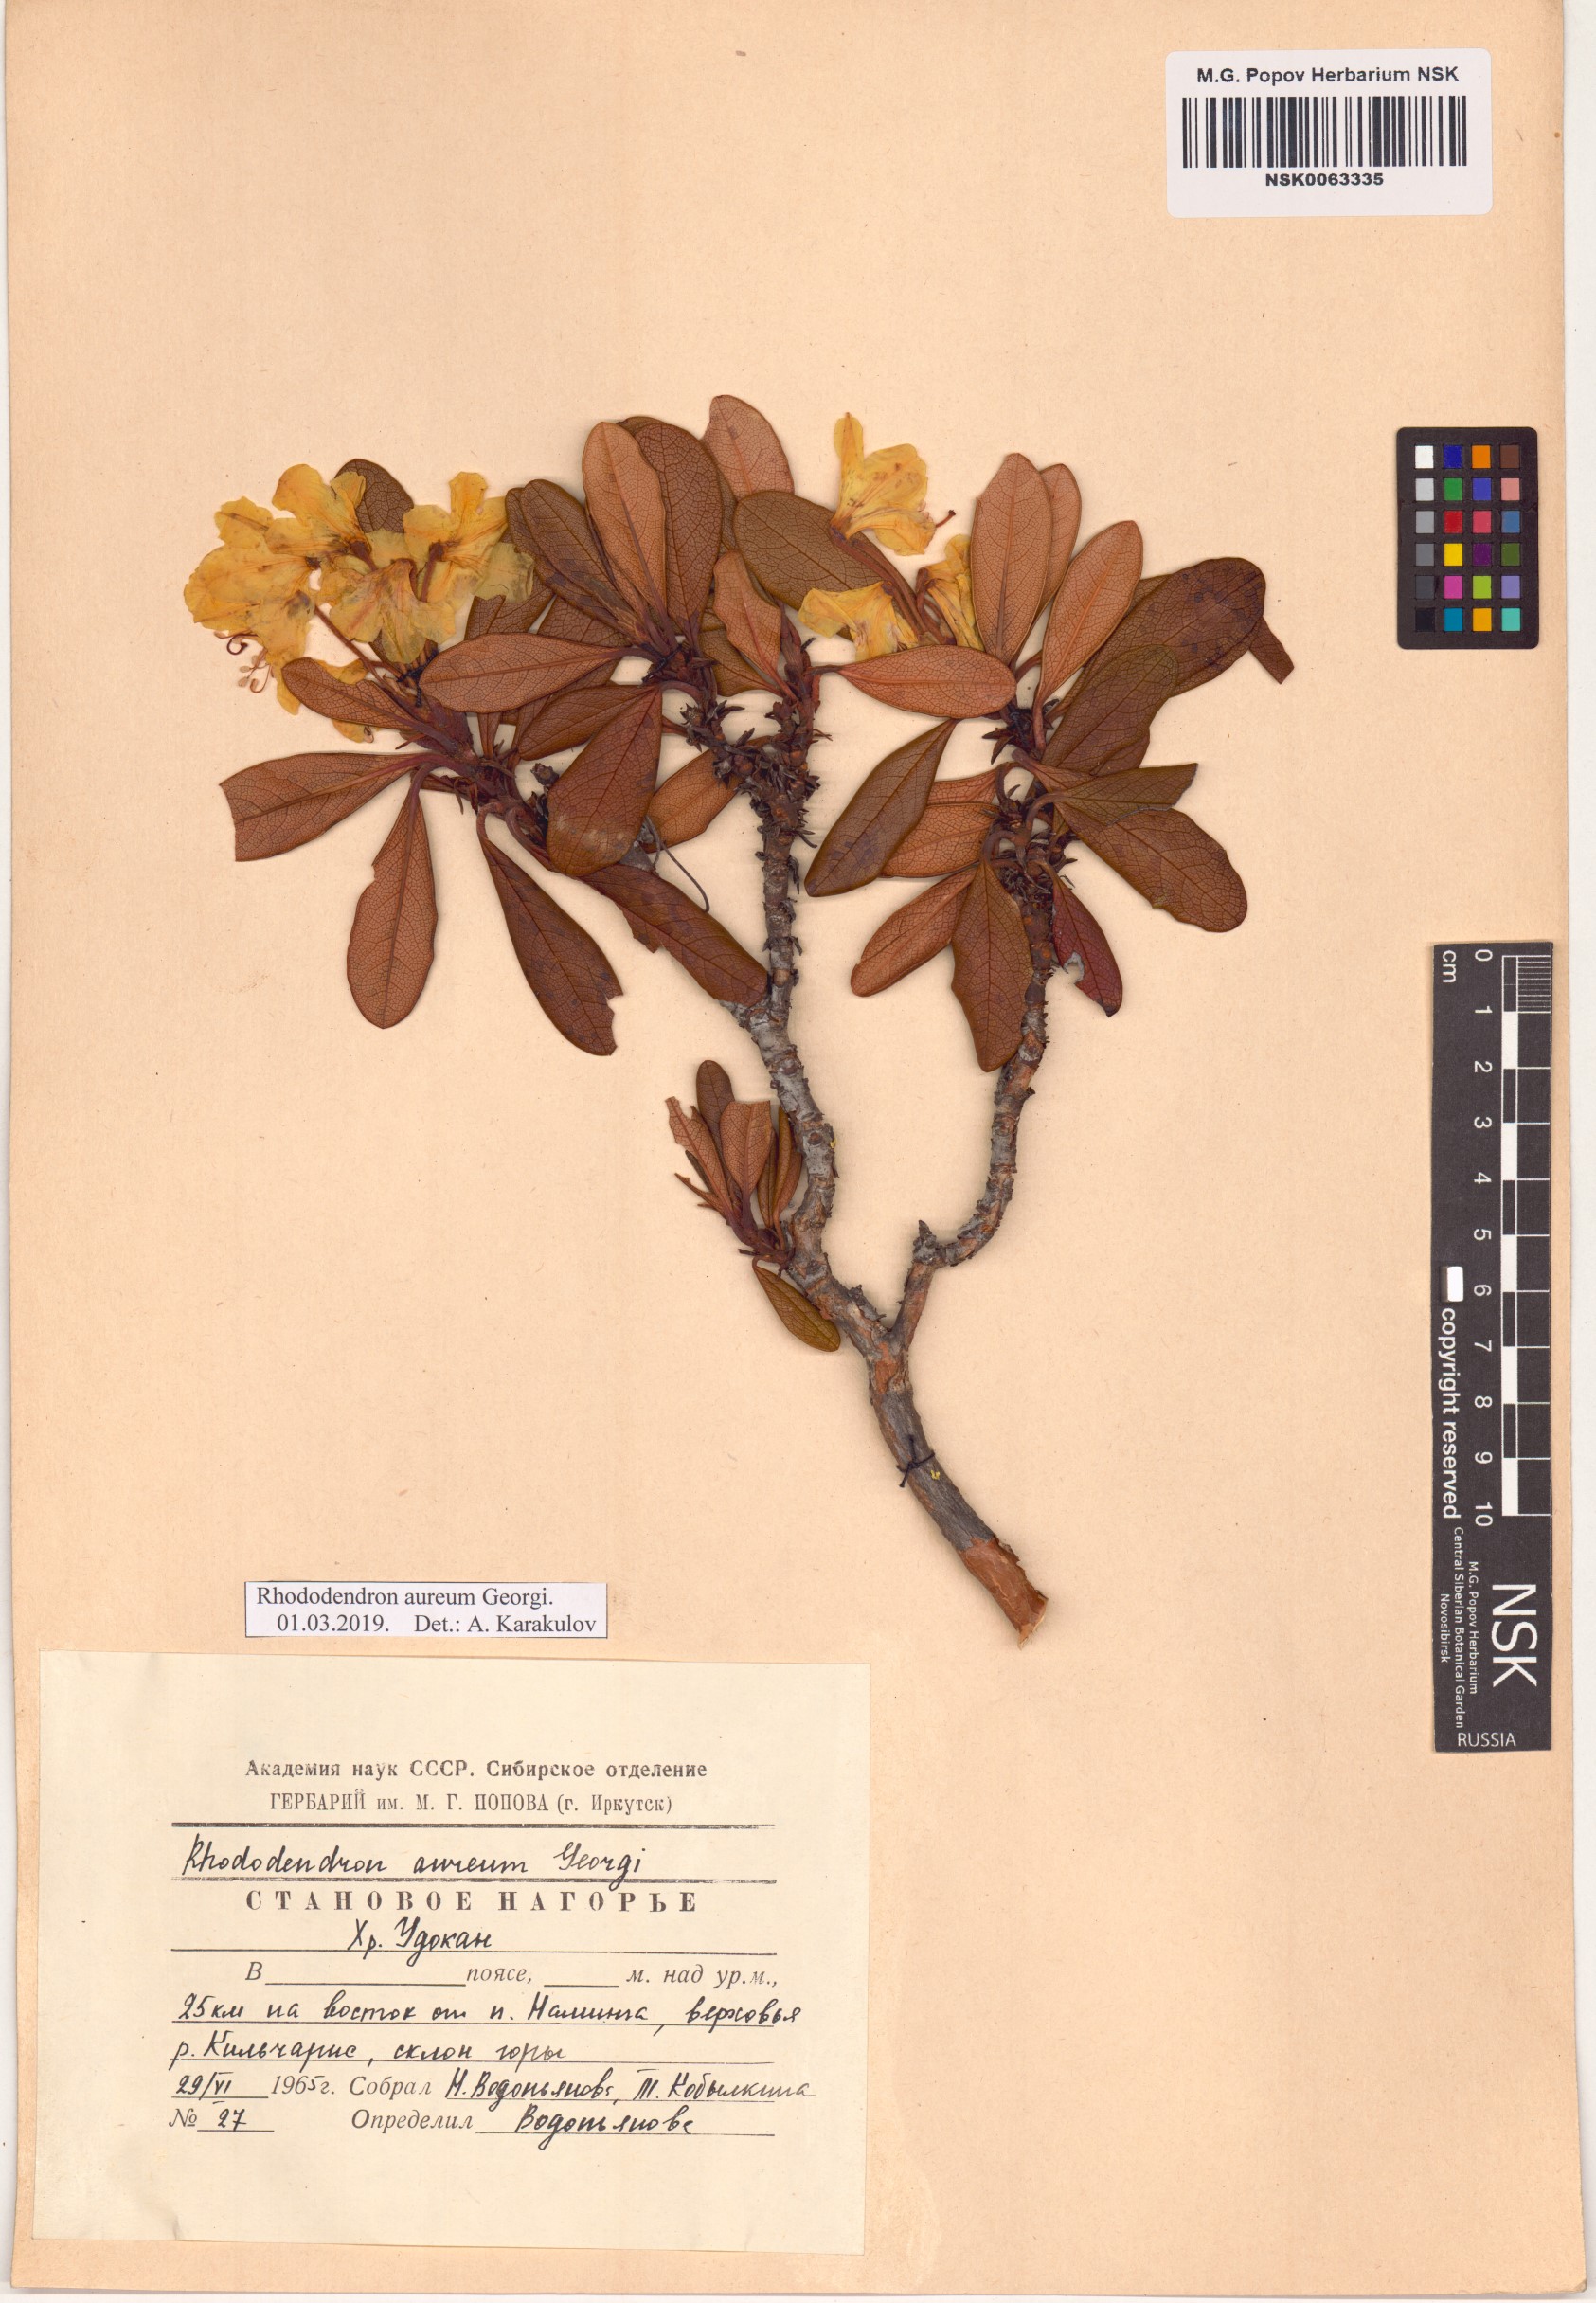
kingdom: Plantae
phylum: Tracheophyta
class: Magnoliopsida
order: Ericales
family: Ericaceae
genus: Rhododendron
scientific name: Rhododendron aureum
